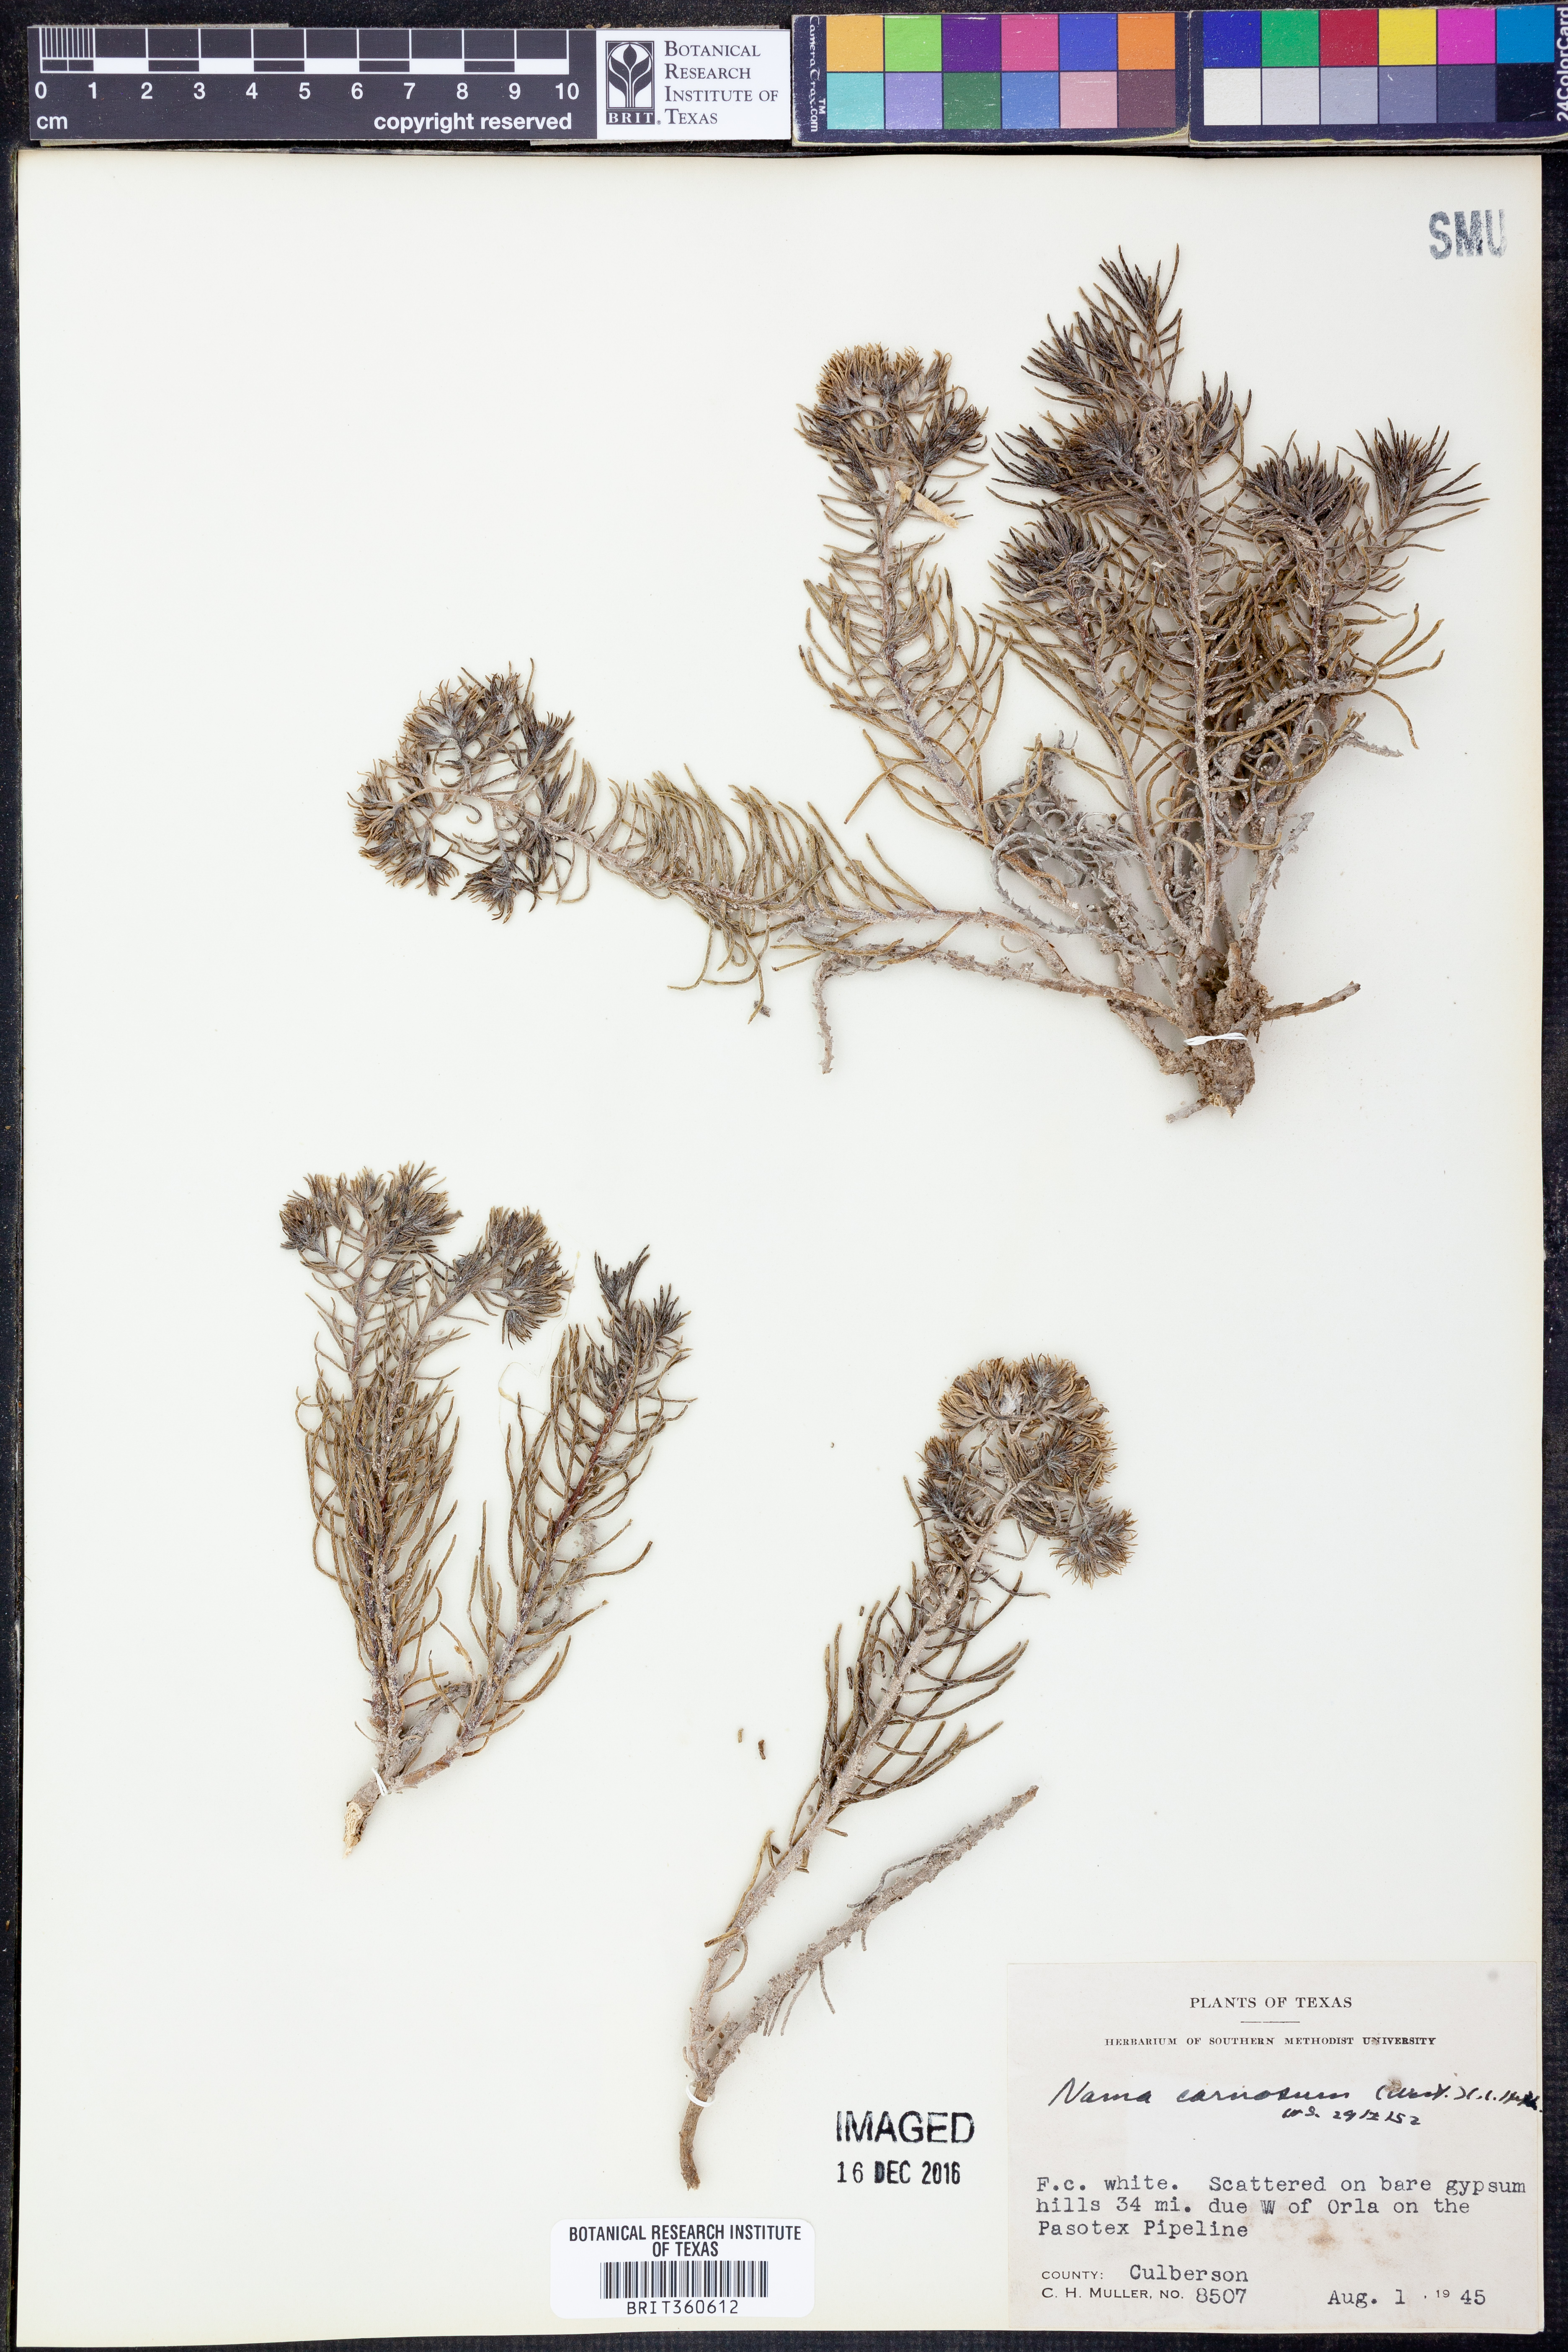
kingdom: Plantae
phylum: Tracheophyta
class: Magnoliopsida
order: Boraginales
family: Namaceae
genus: Andropus
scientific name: Andropus carnosus
